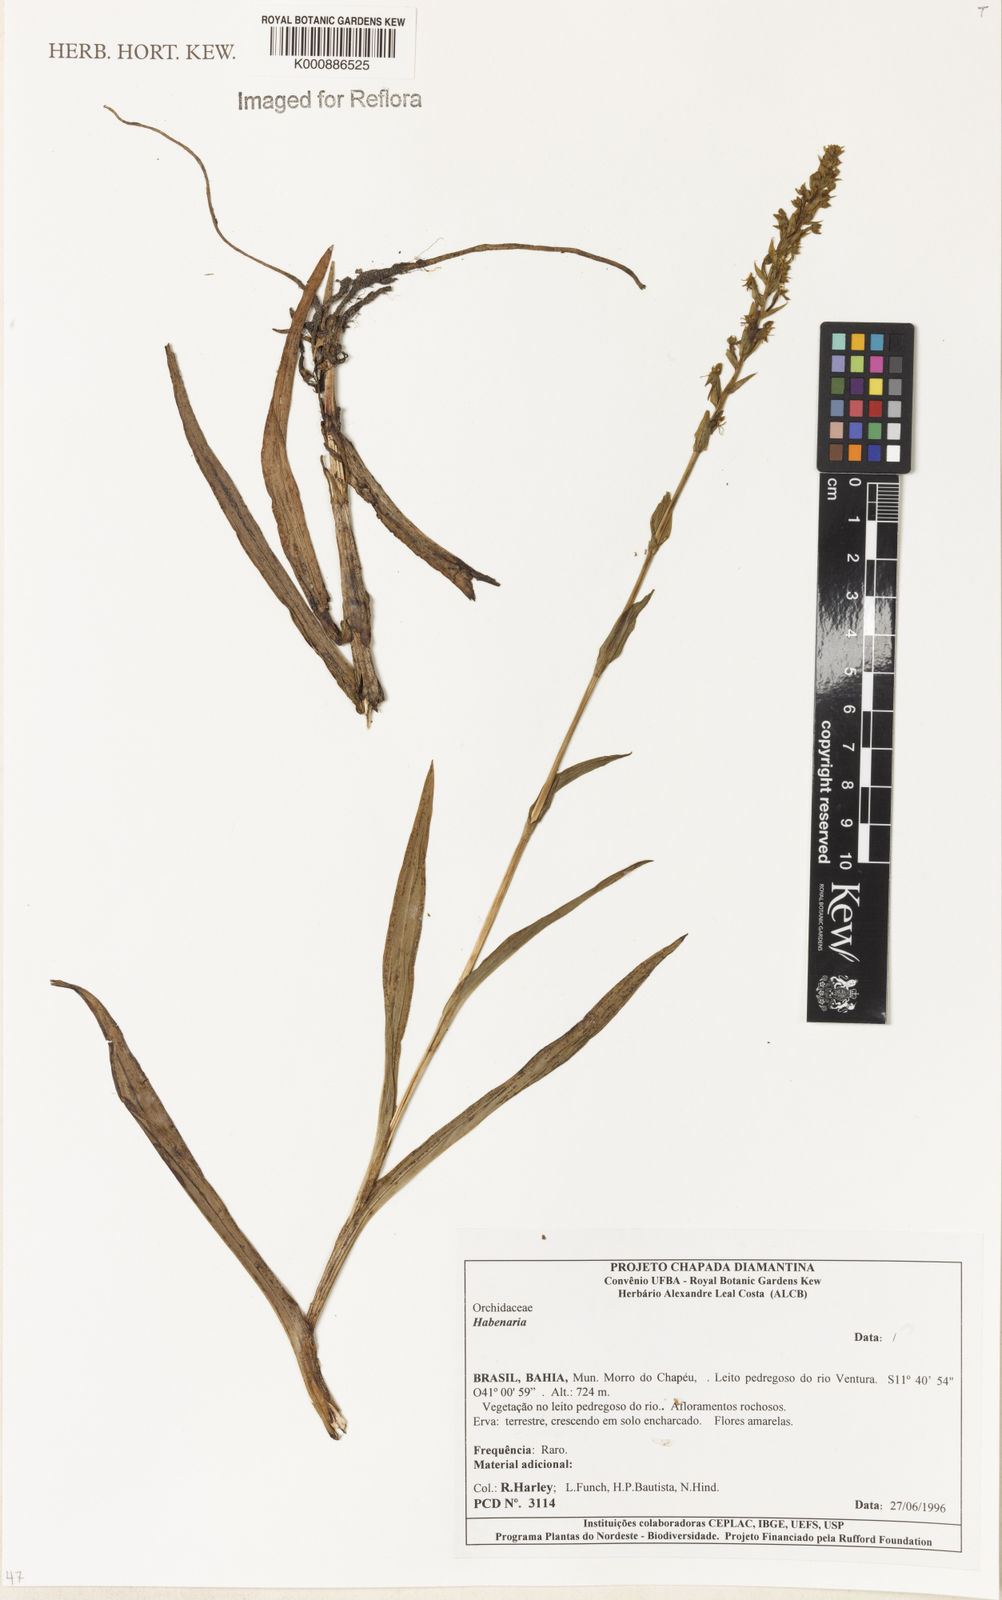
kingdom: Plantae
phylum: Tracheophyta
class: Liliopsida
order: Asparagales
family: Orchidaceae
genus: Habenaria
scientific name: Habenaria
